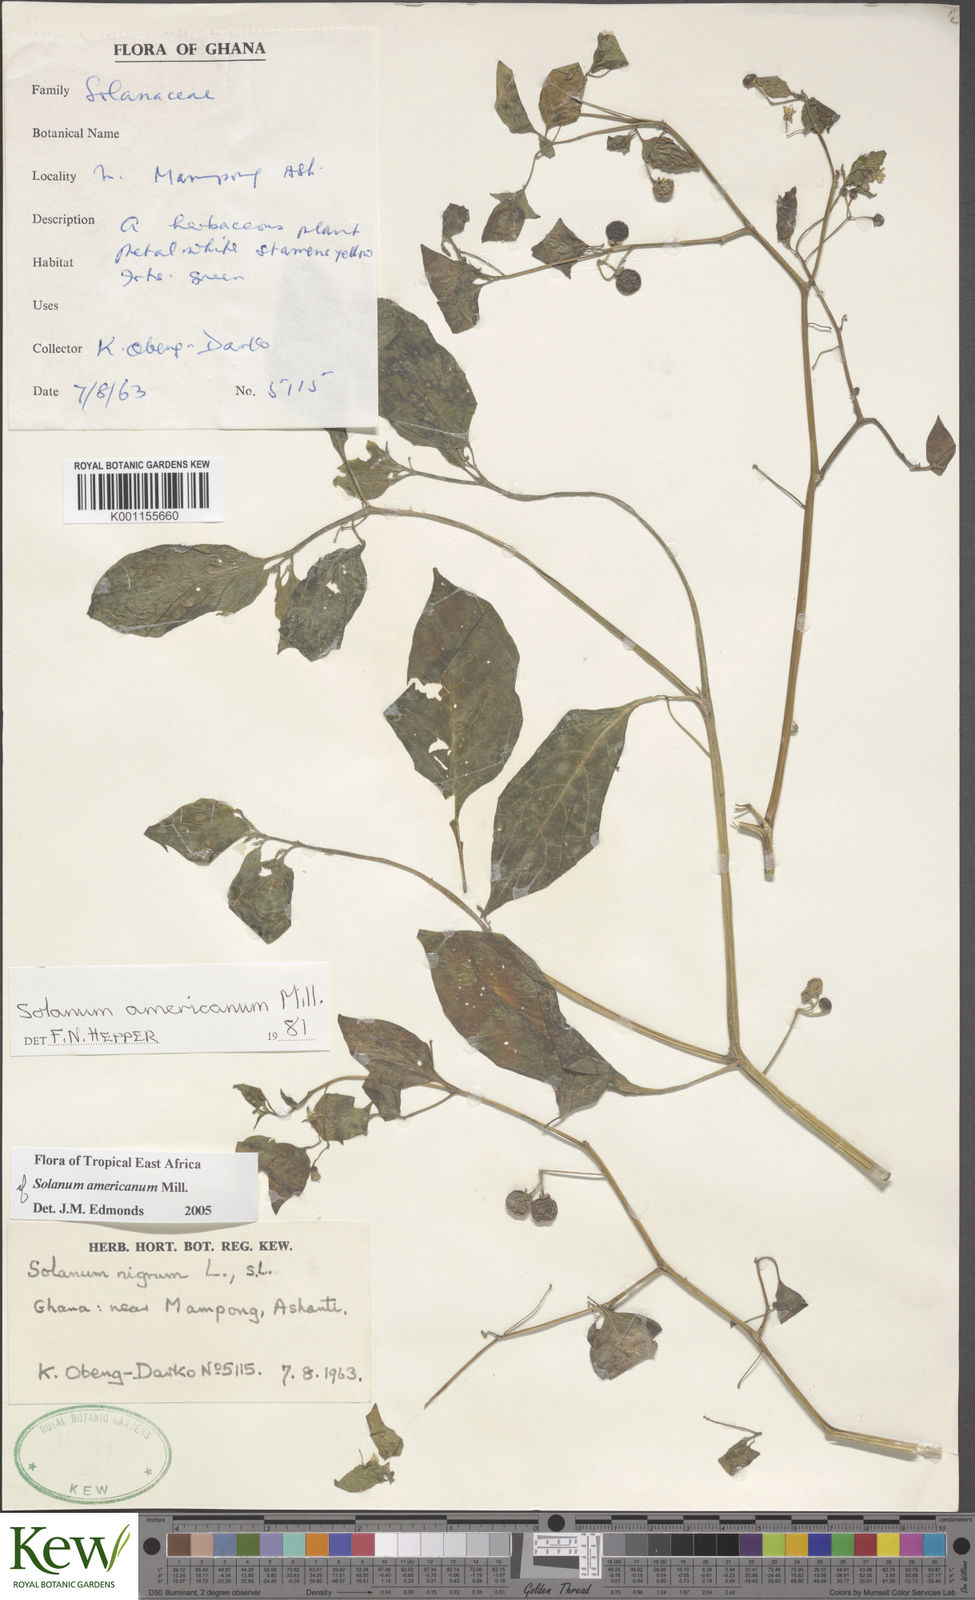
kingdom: Plantae
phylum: Tracheophyta
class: Magnoliopsida
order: Solanales
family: Solanaceae
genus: Solanum
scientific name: Solanum scabrum
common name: Garden-huckleberry
